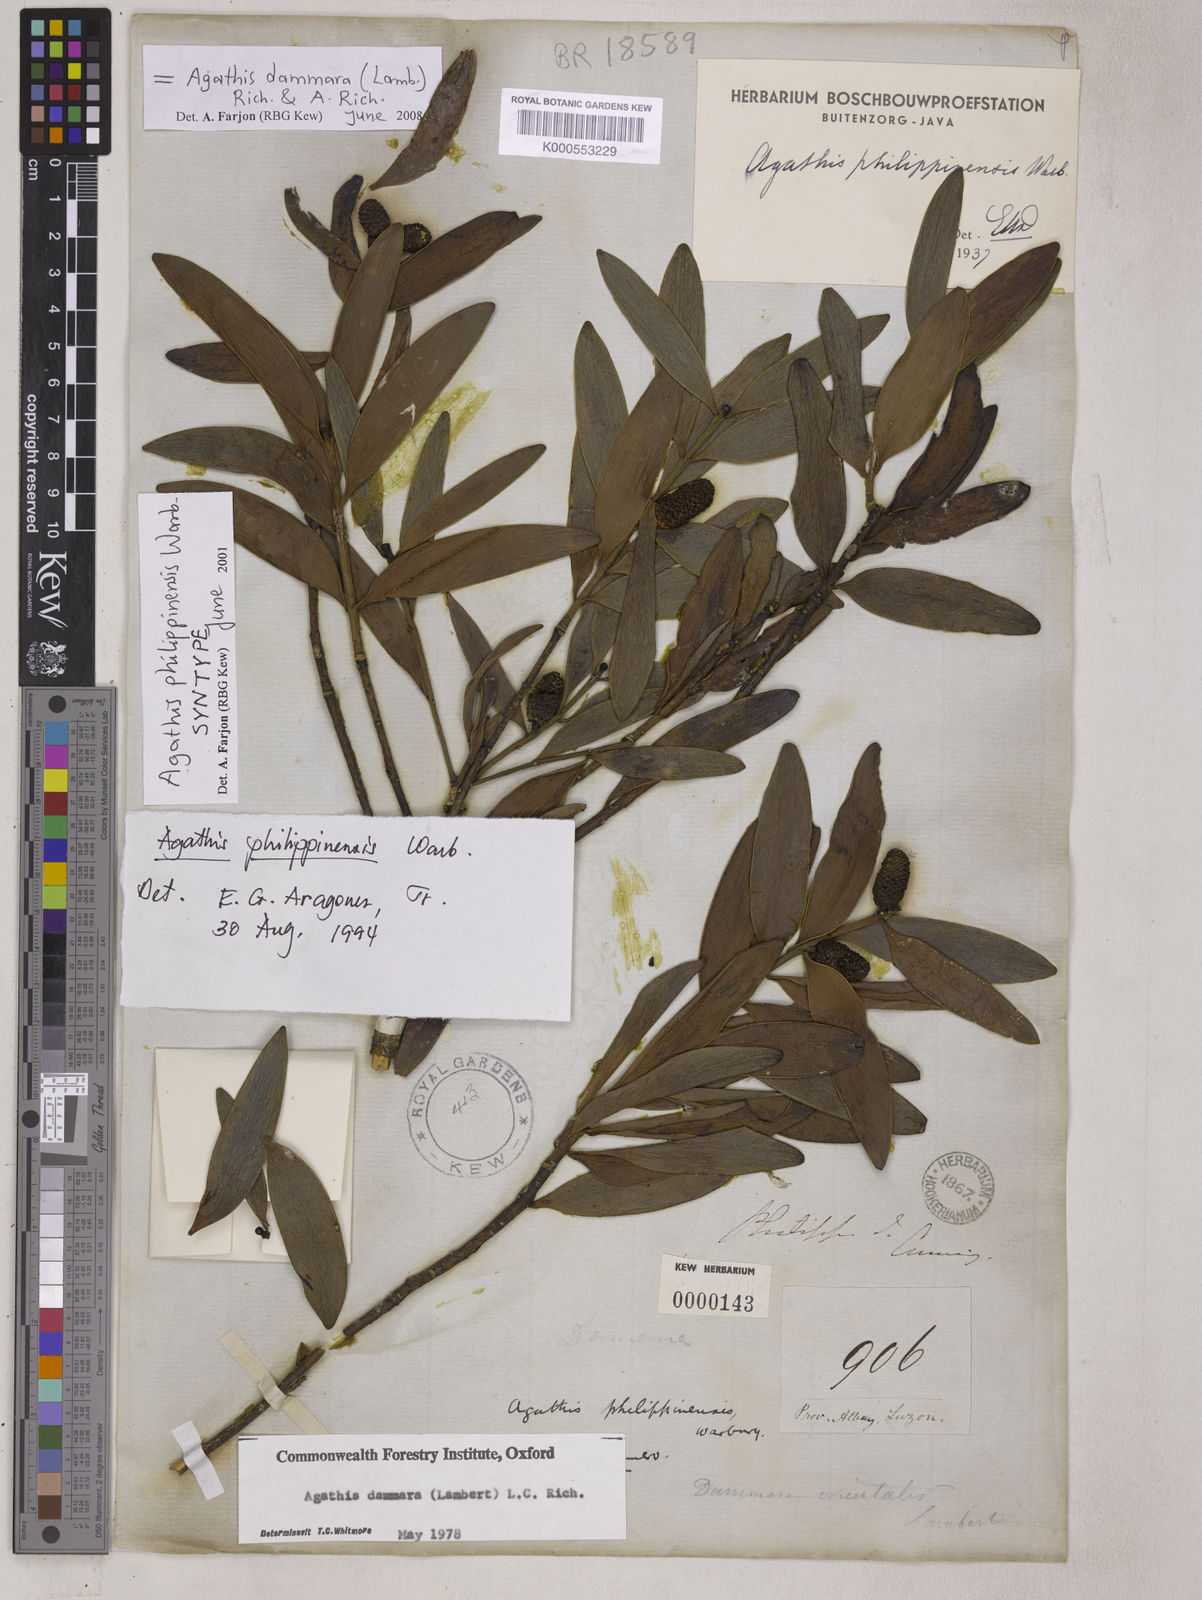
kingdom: Plantae
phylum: Tracheophyta
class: Pinopsida
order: Pinales
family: Araucariaceae
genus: Agathis
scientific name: Agathis
